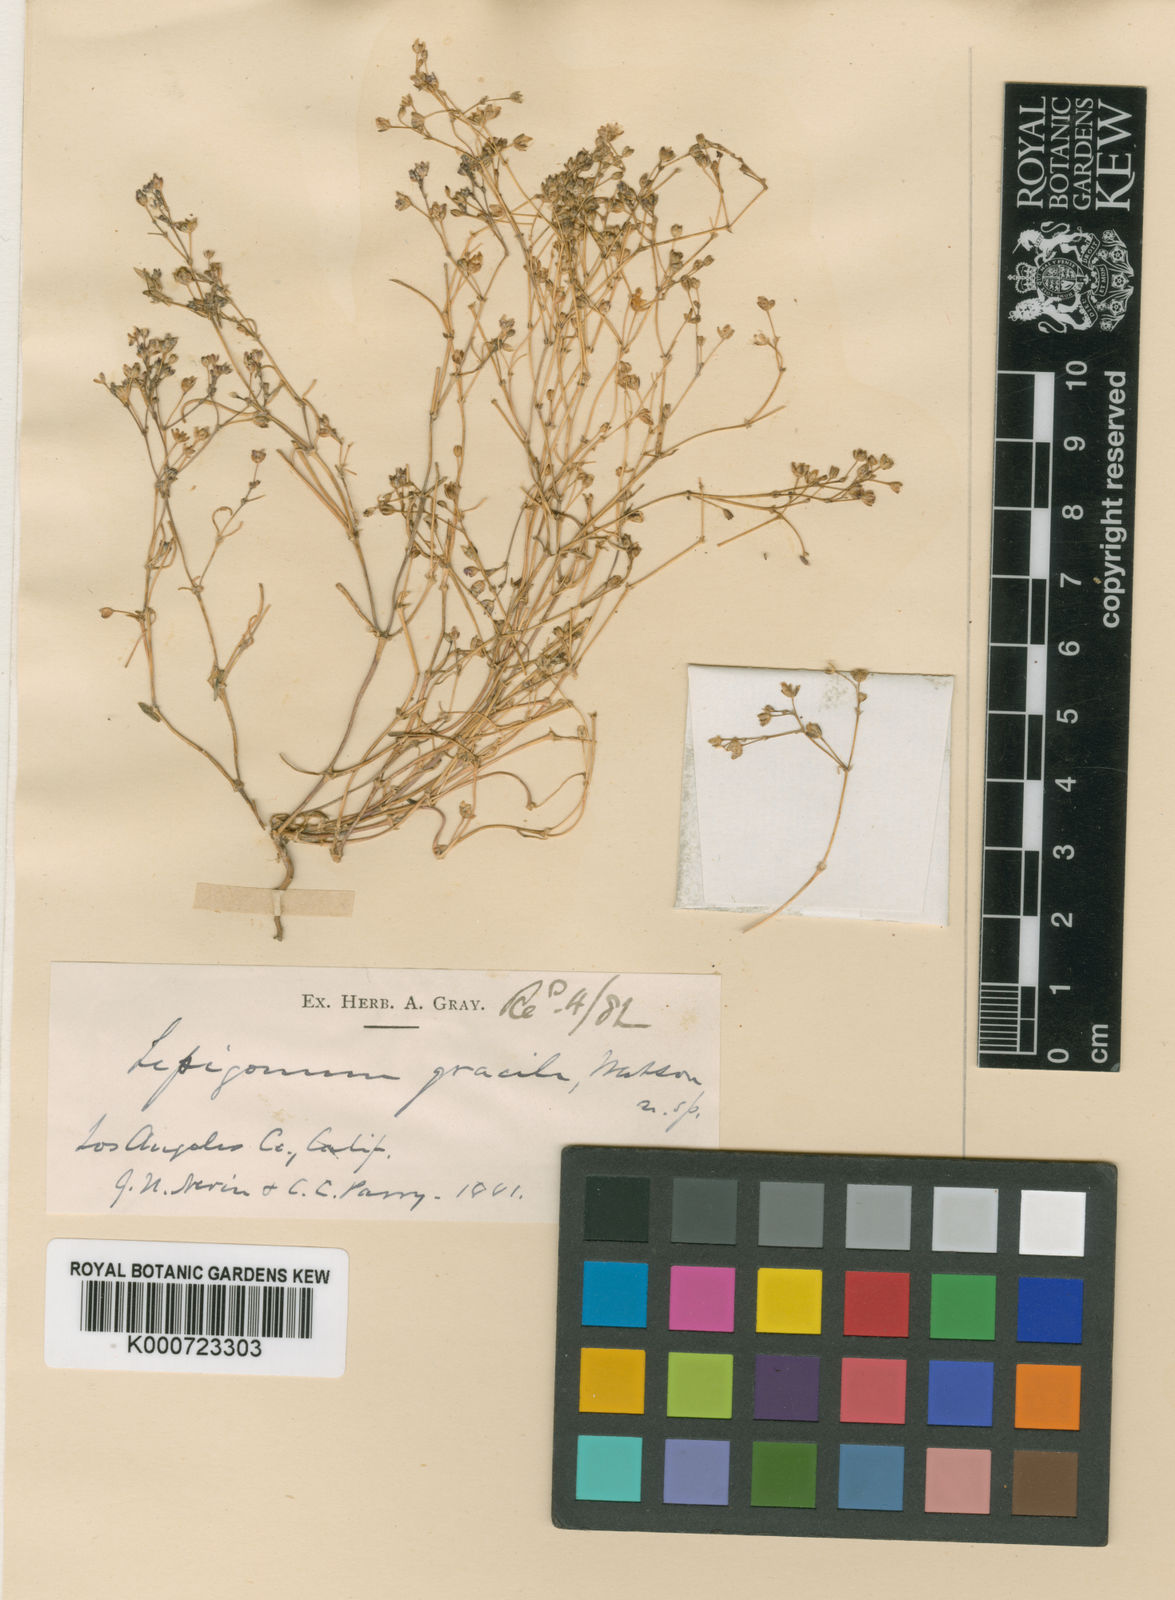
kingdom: Plantae
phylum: Tracheophyta
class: Magnoliopsida
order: Caryophyllales
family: Caryophyllaceae
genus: Spergularia
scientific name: Spergularia
